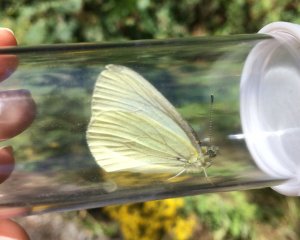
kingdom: Animalia
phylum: Arthropoda
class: Insecta
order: Lepidoptera
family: Pieridae
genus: Pieris
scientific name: Pieris marginalis
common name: Margined White
